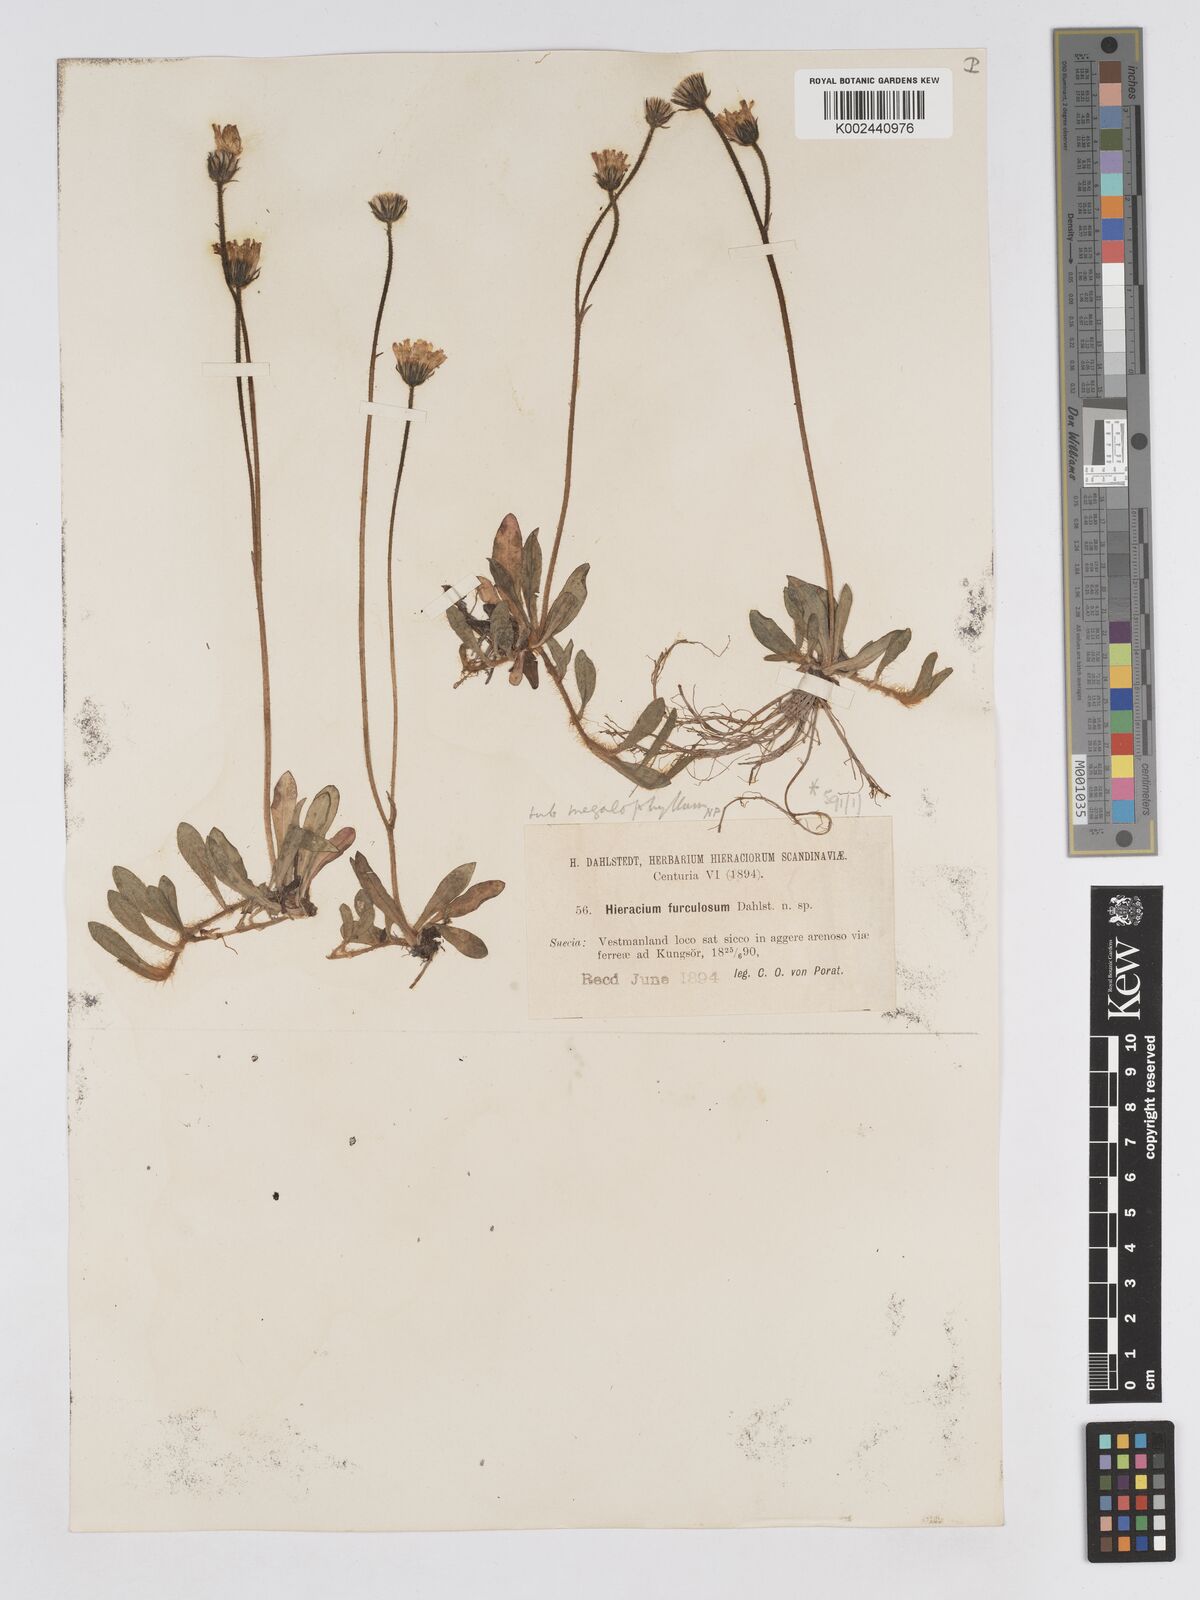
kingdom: Plantae
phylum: Tracheophyta
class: Magnoliopsida
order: Asterales
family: Asteraceae
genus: Pilosella
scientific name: Pilosella schultesii
